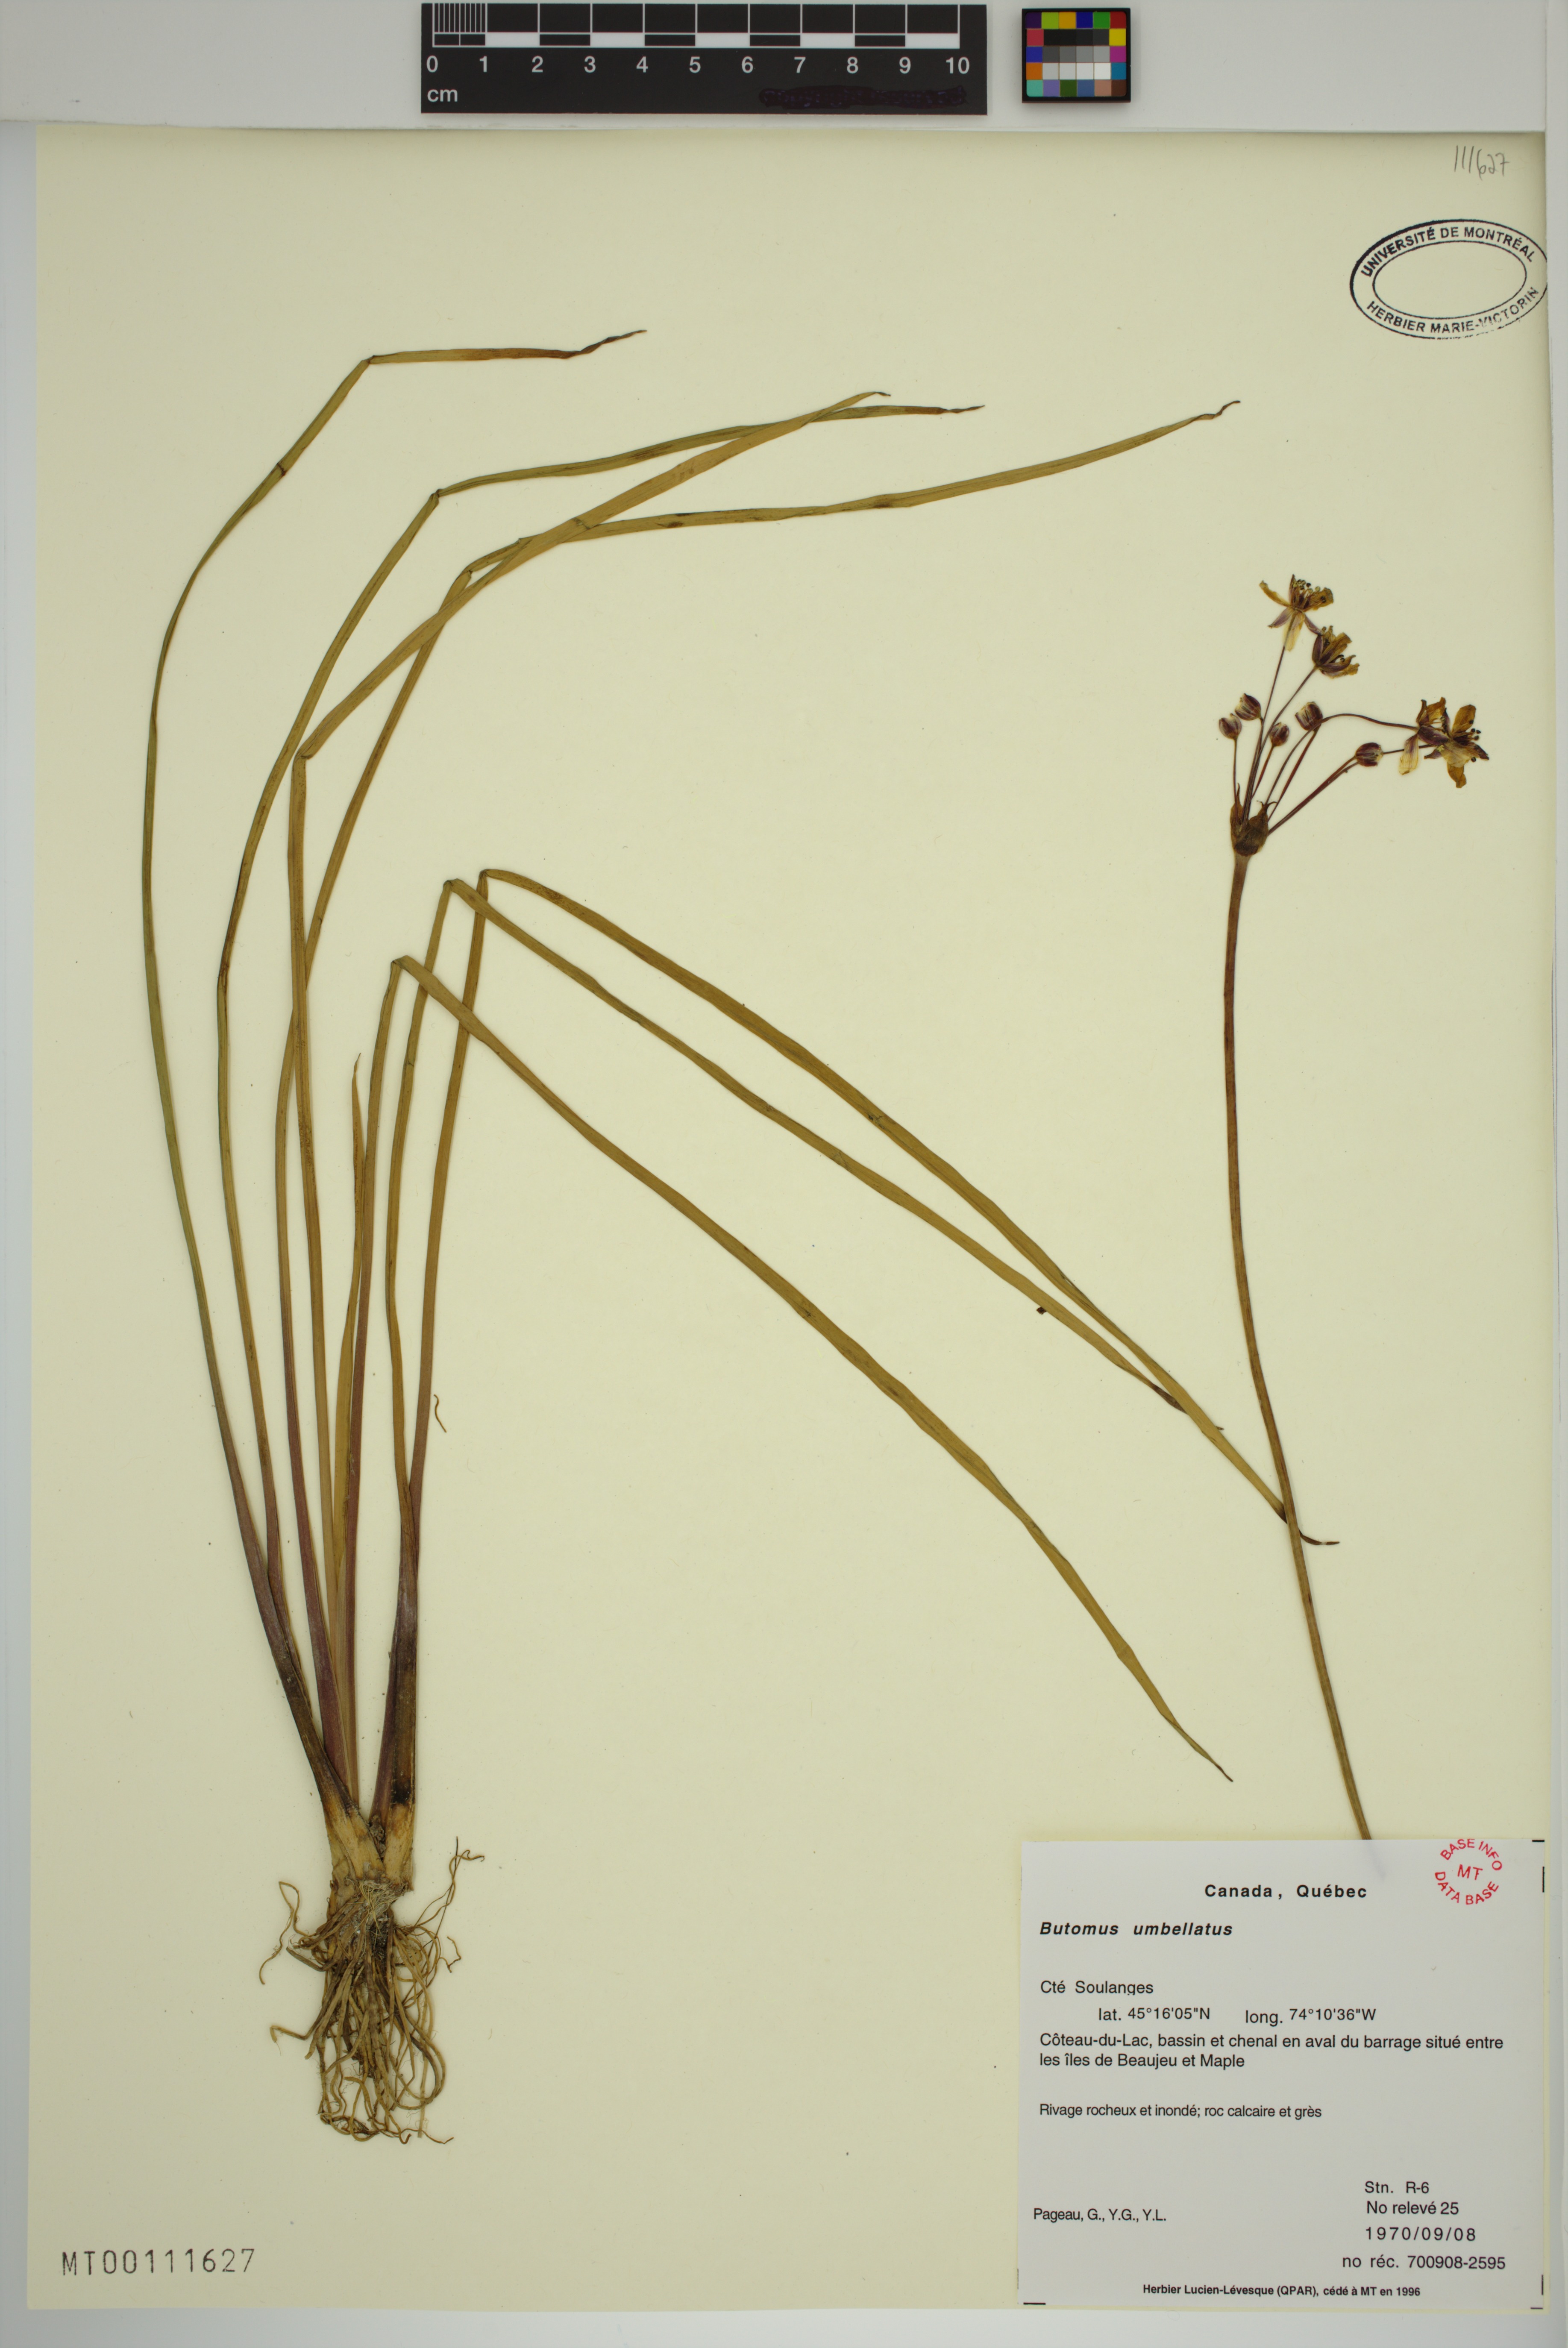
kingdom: Plantae
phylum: Tracheophyta
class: Liliopsida
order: Alismatales
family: Butomaceae
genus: Butomus
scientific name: Butomus umbellatus
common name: Flowering-rush
